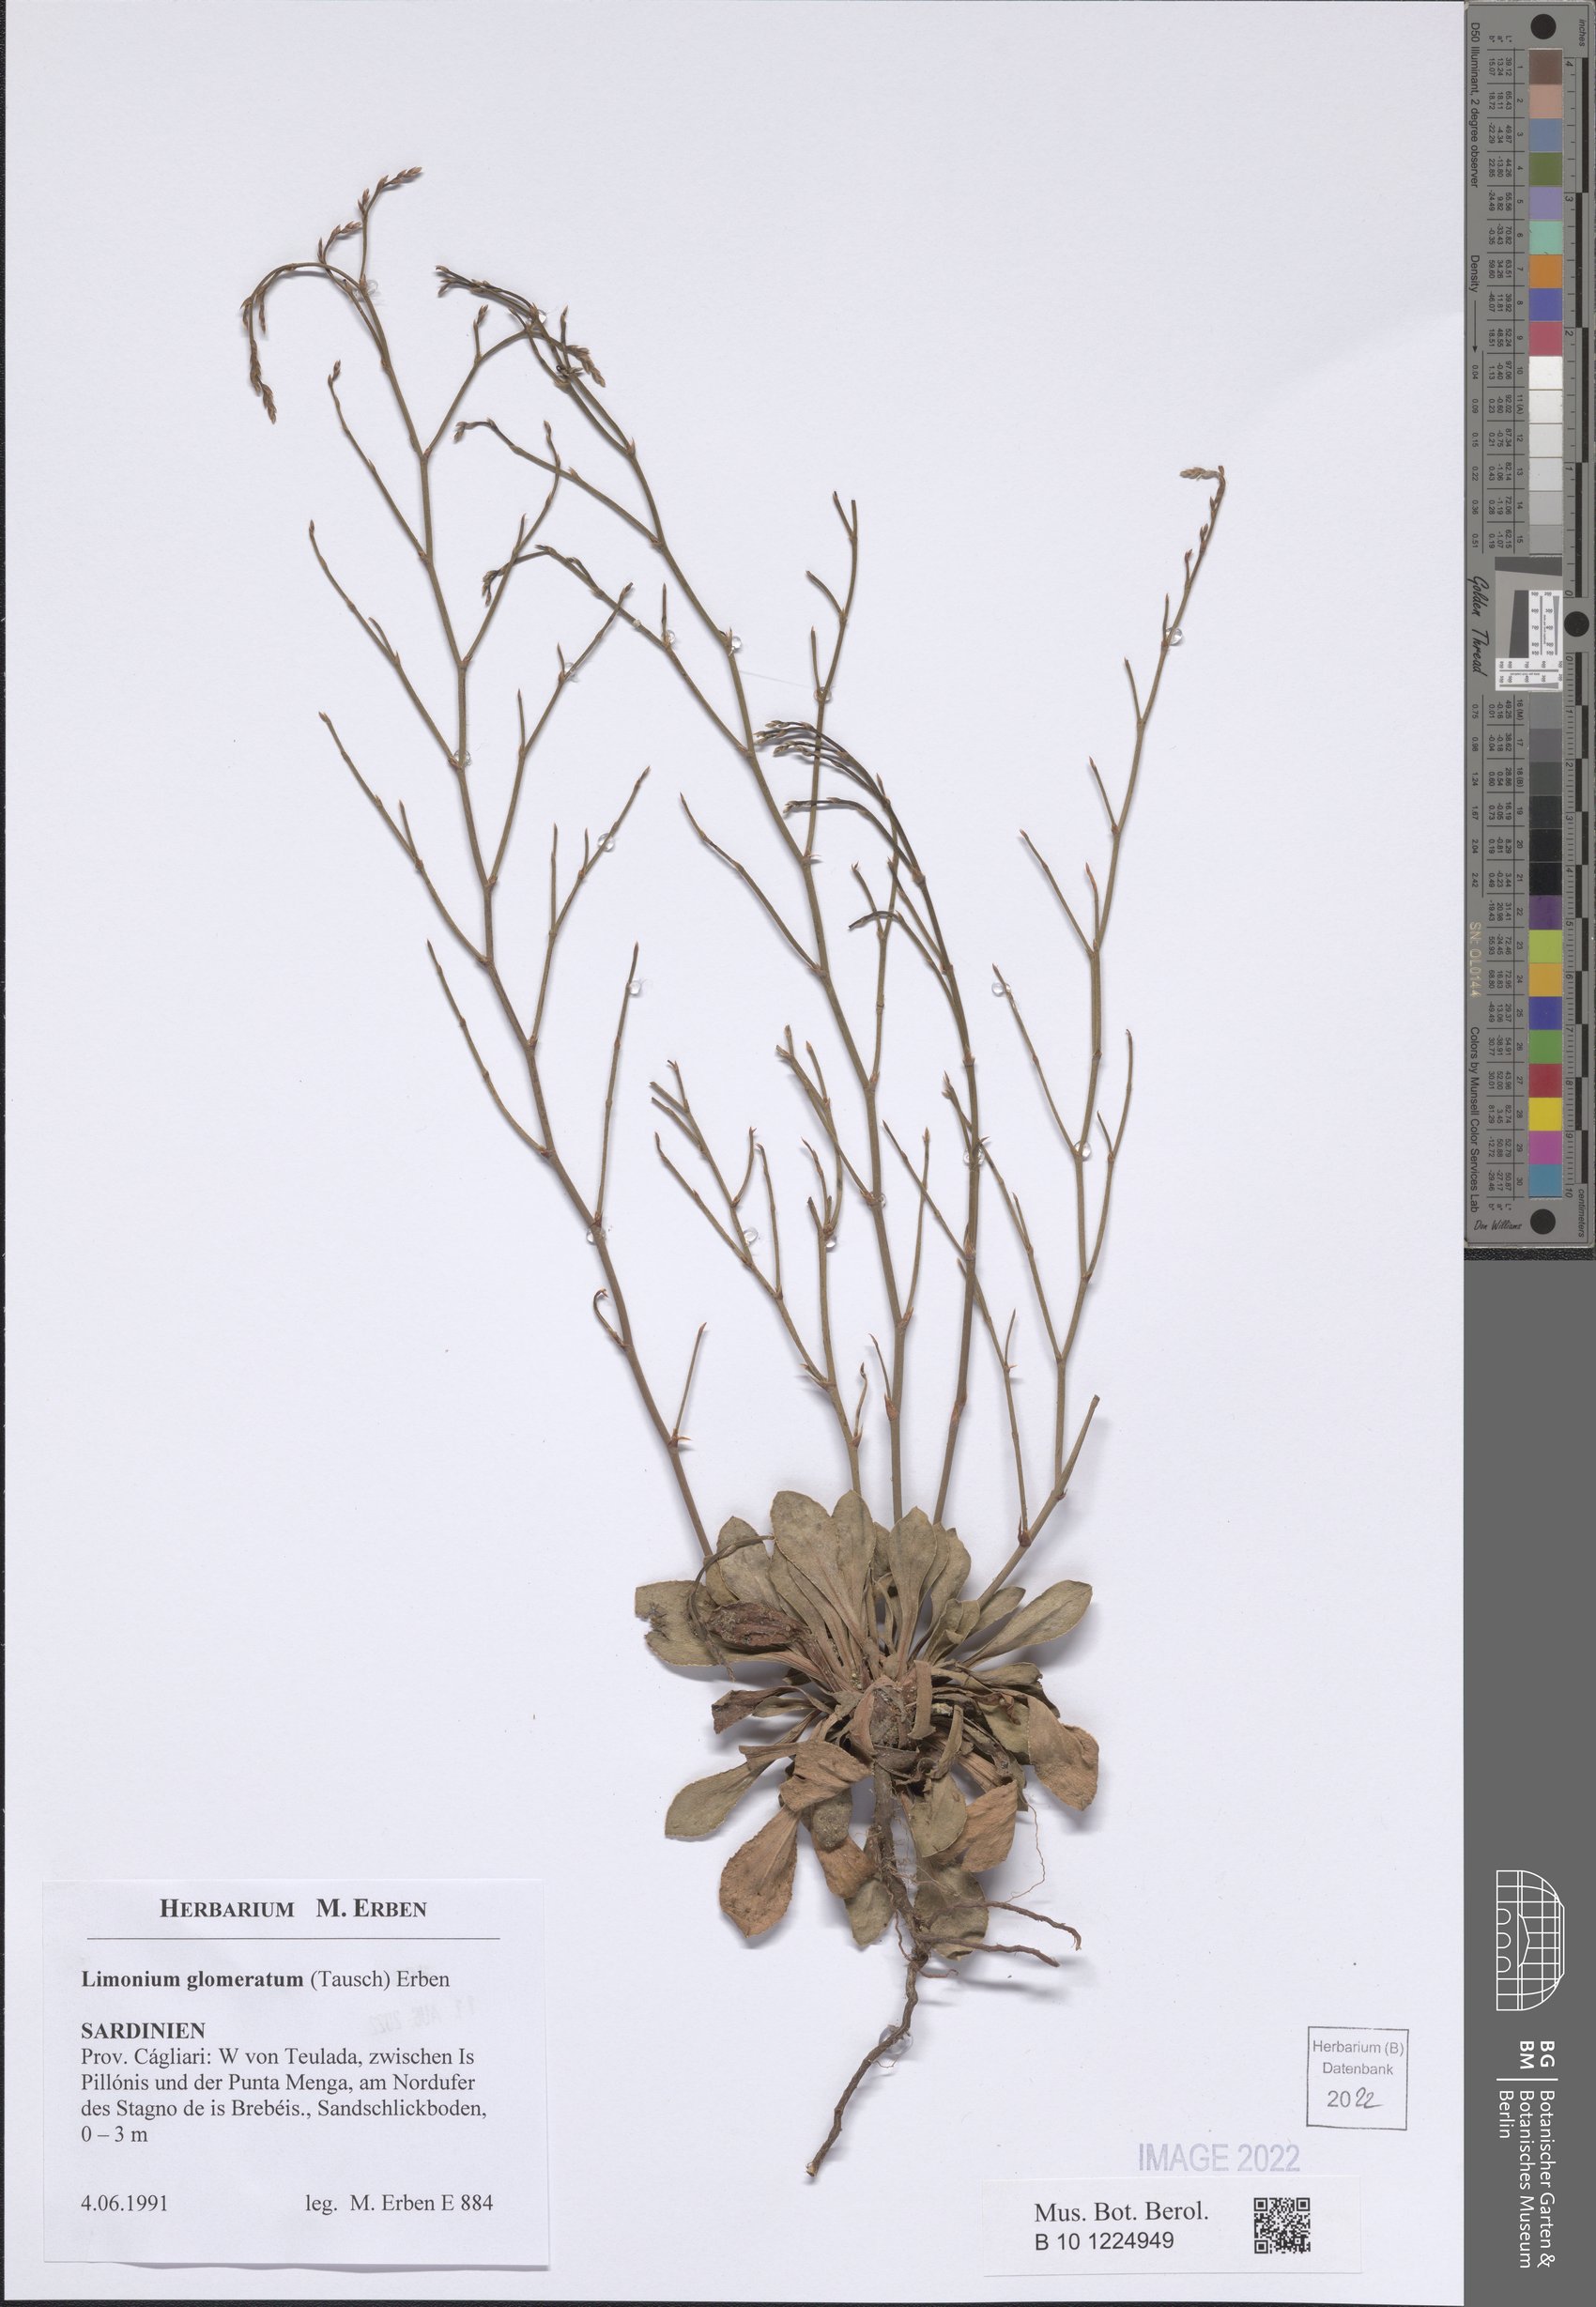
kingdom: Plantae
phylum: Tracheophyta
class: Magnoliopsida
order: Caryophyllales
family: Plumbaginaceae
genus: Limonium
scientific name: Limonium glomeratum
